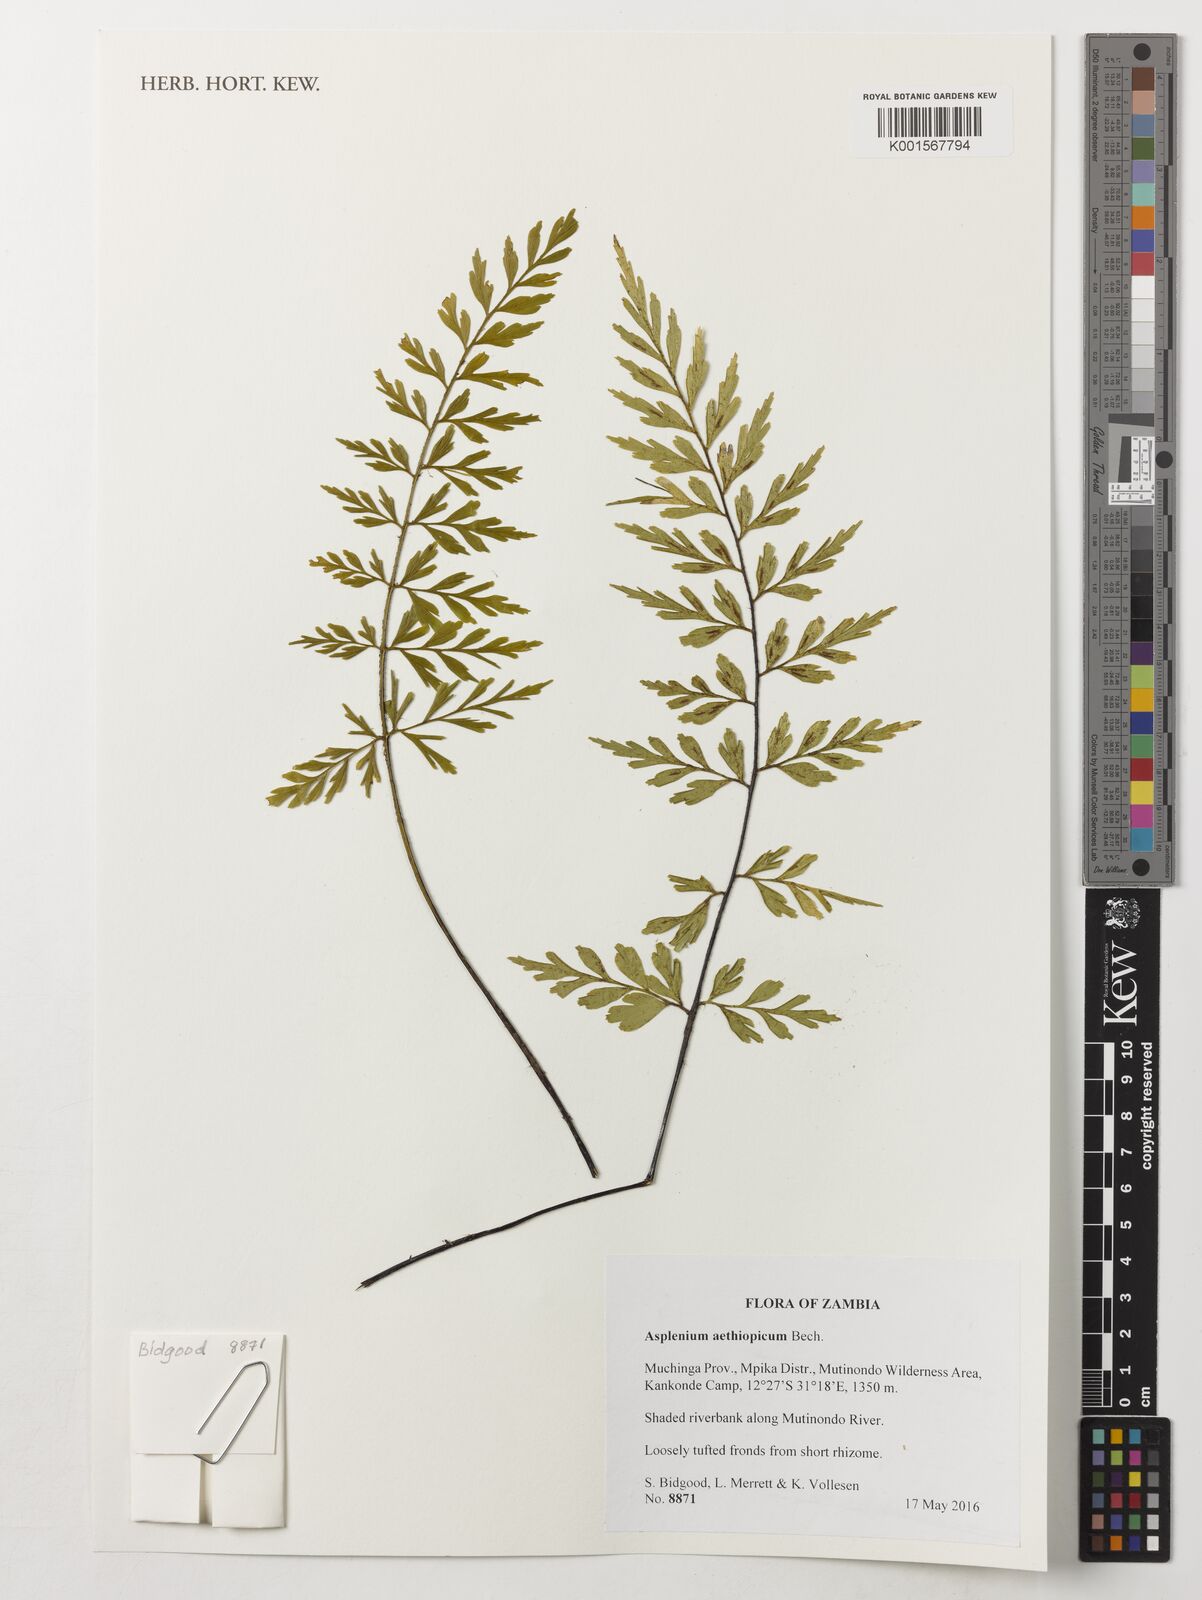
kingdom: Plantae
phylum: Tracheophyta
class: Polypodiopsida
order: Polypodiales
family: Aspleniaceae
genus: Asplenium
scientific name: Asplenium aethiopicum
